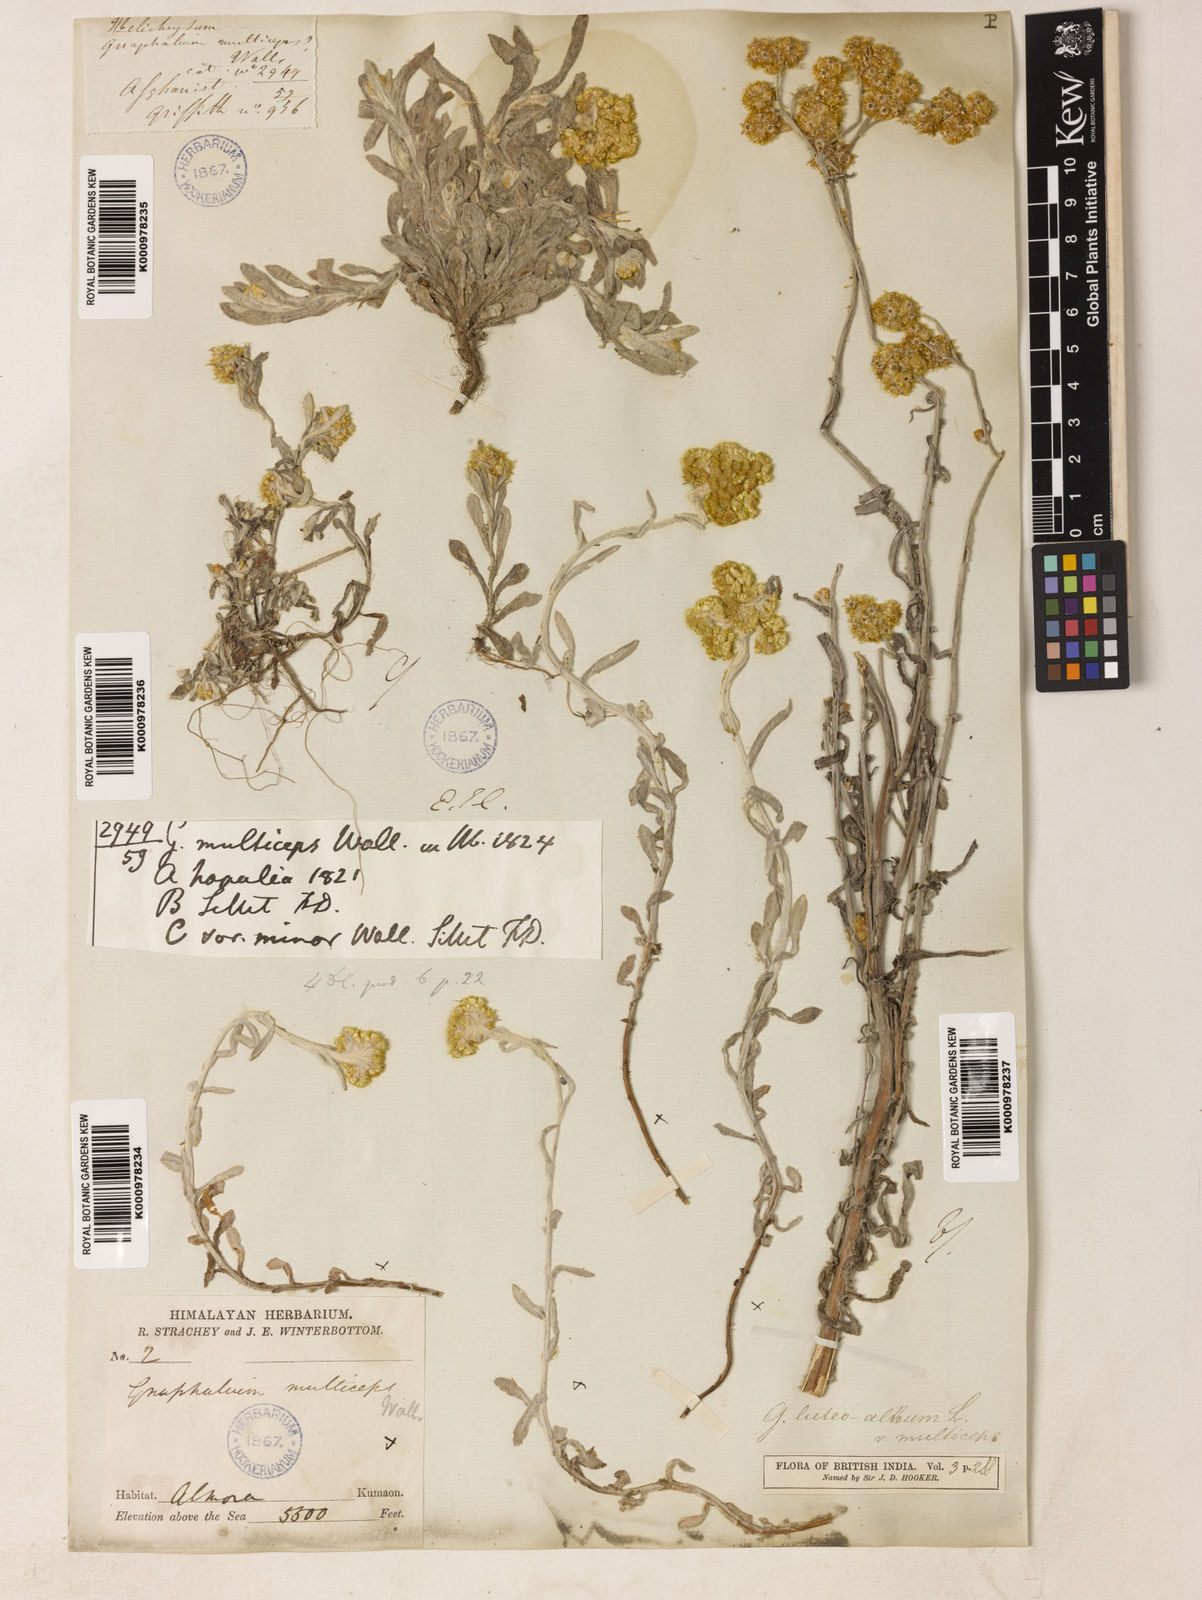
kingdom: Plantae
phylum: Tracheophyta
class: Magnoliopsida
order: Asterales
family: Asteraceae
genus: Helichrysum
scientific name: Helichrysum luteoalbum
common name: Daisy
